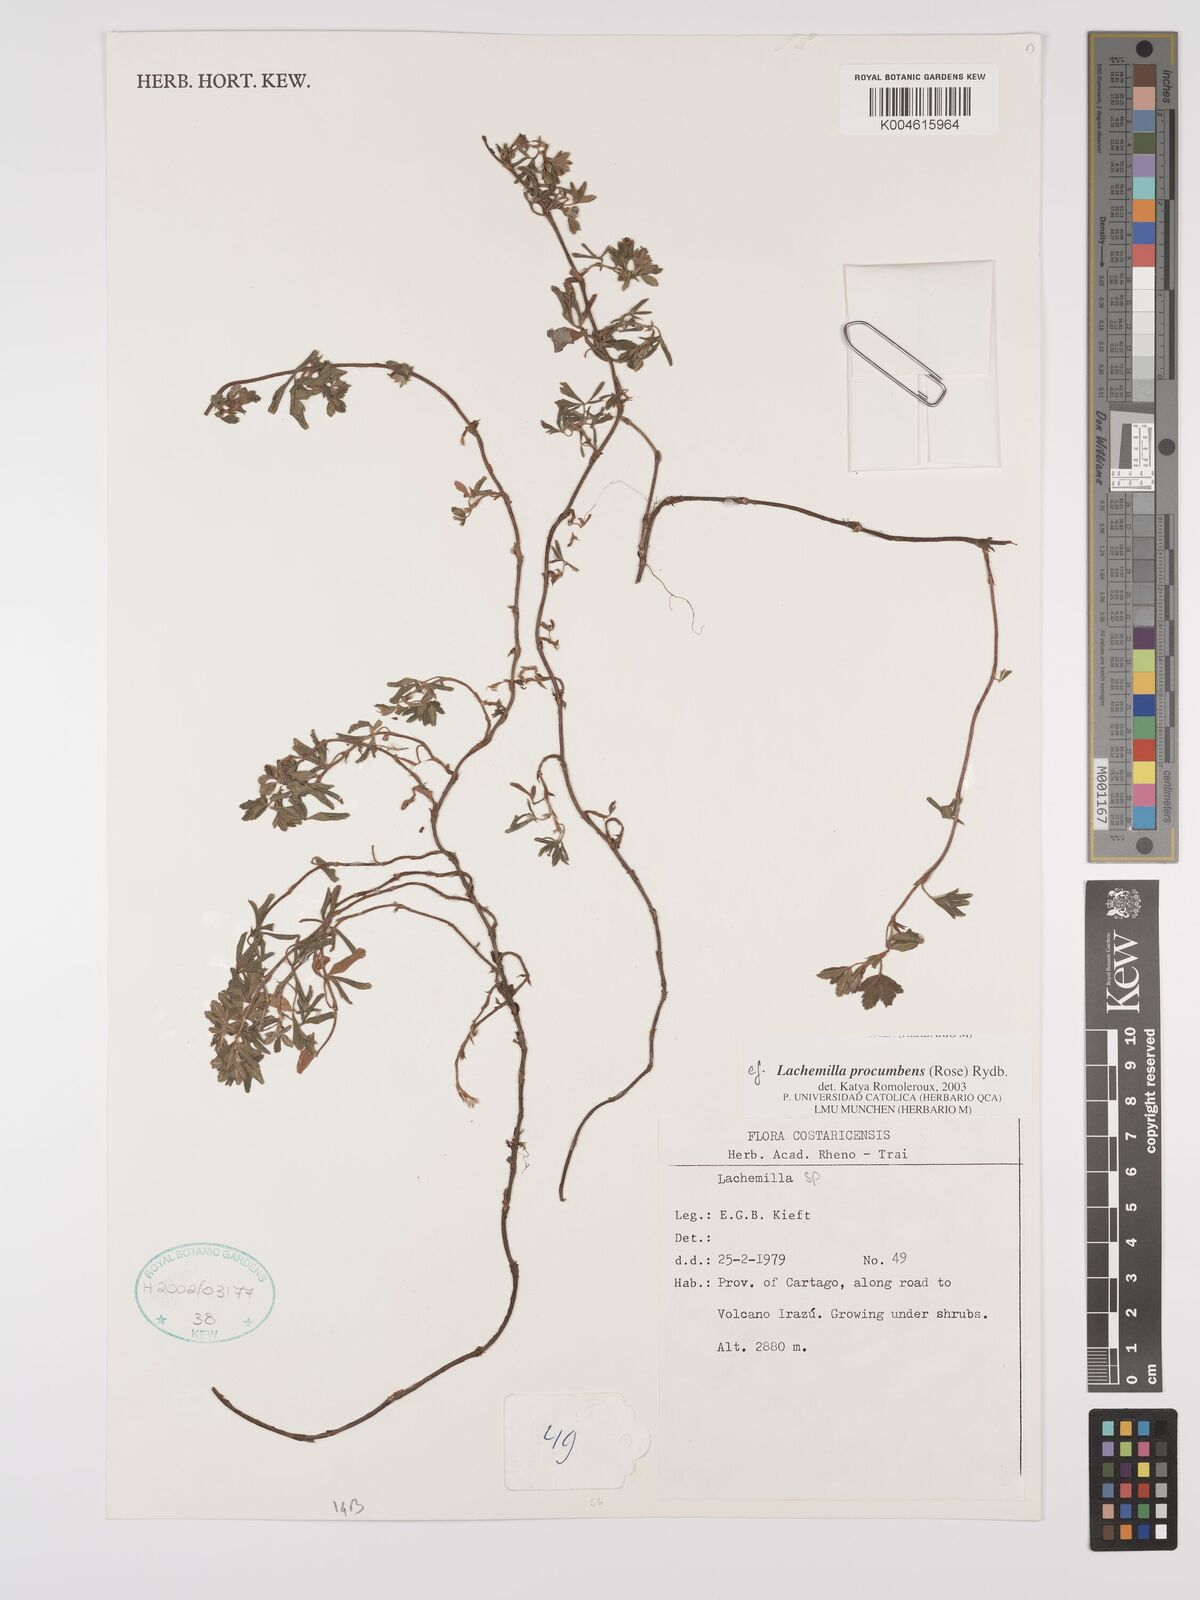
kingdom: Plantae
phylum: Tracheophyta
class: Magnoliopsida
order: Rosales
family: Rosaceae
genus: Lachemilla
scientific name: Lachemilla procumbens
